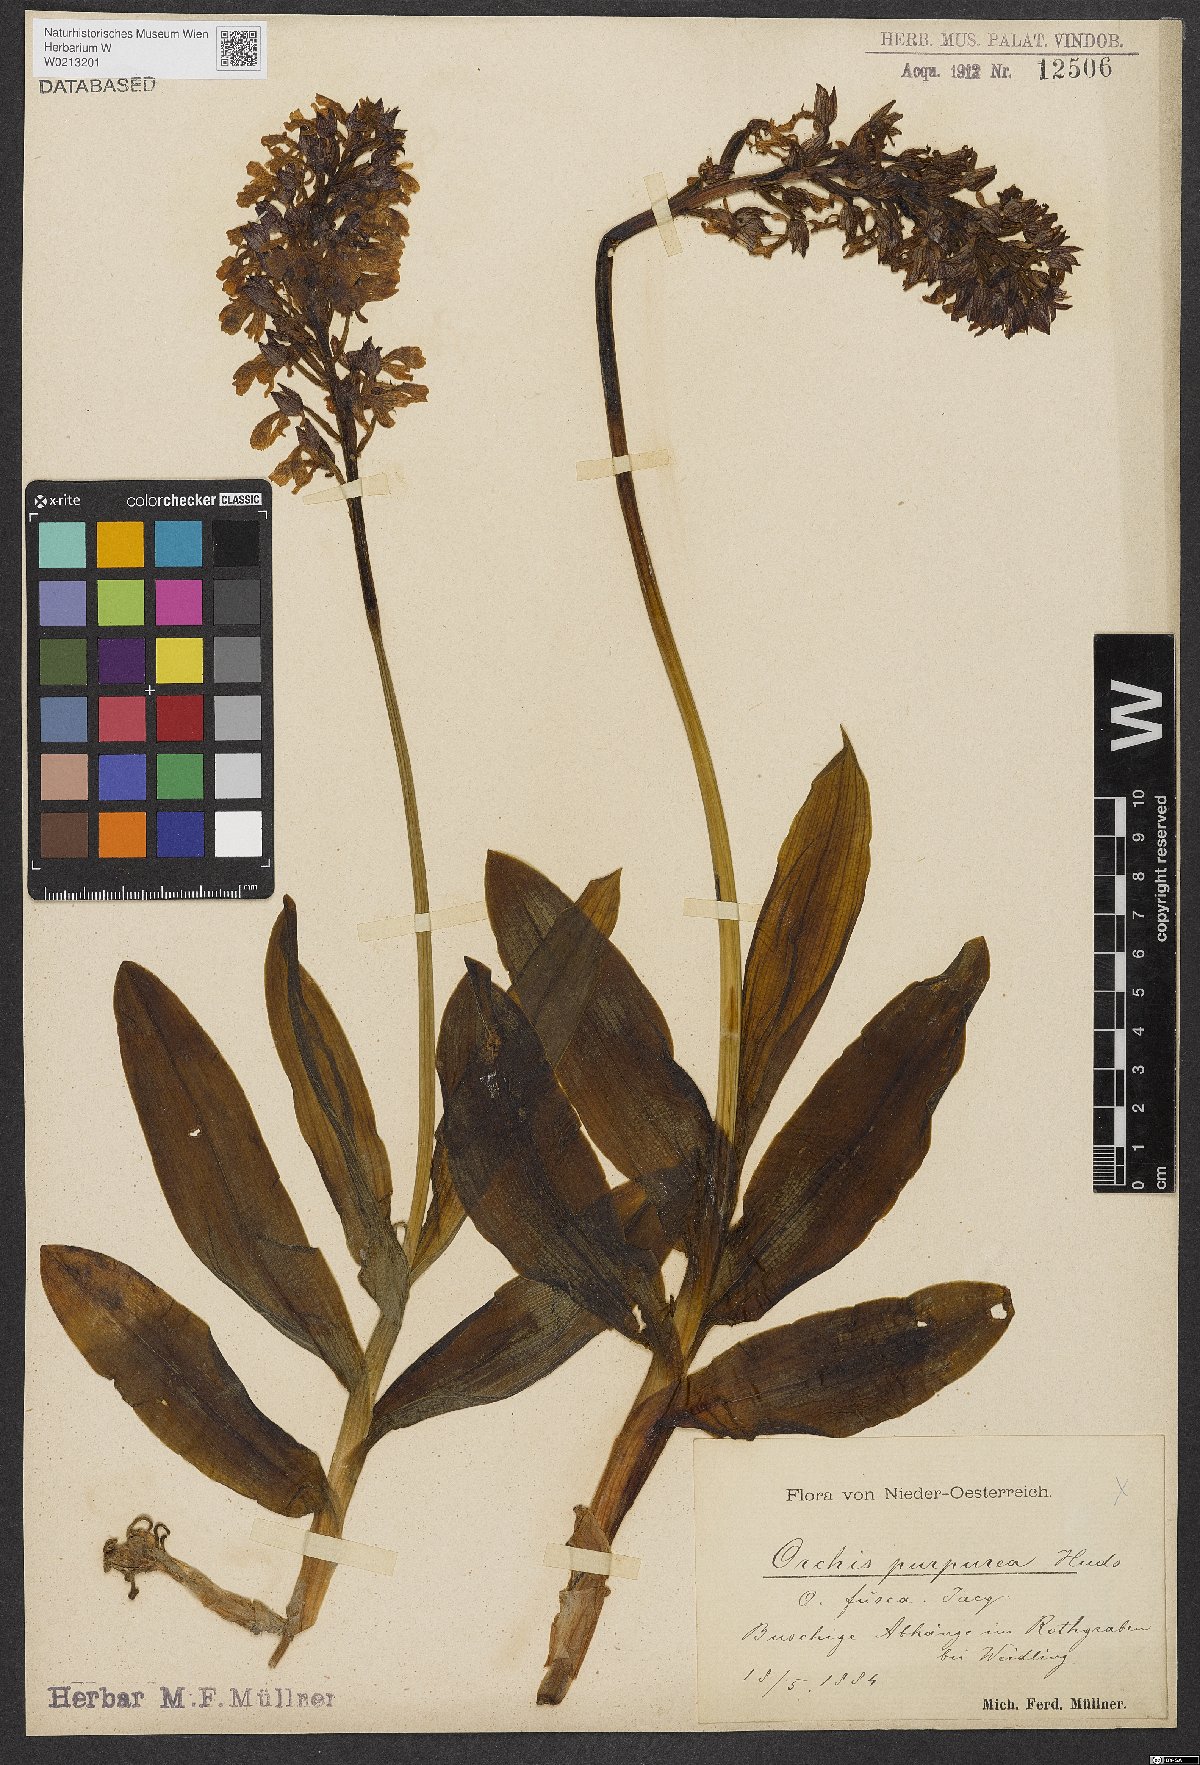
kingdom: Plantae
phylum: Tracheophyta
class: Liliopsida
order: Asparagales
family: Orchidaceae
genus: Orchis
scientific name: Orchis purpurea
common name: Lady orchid
